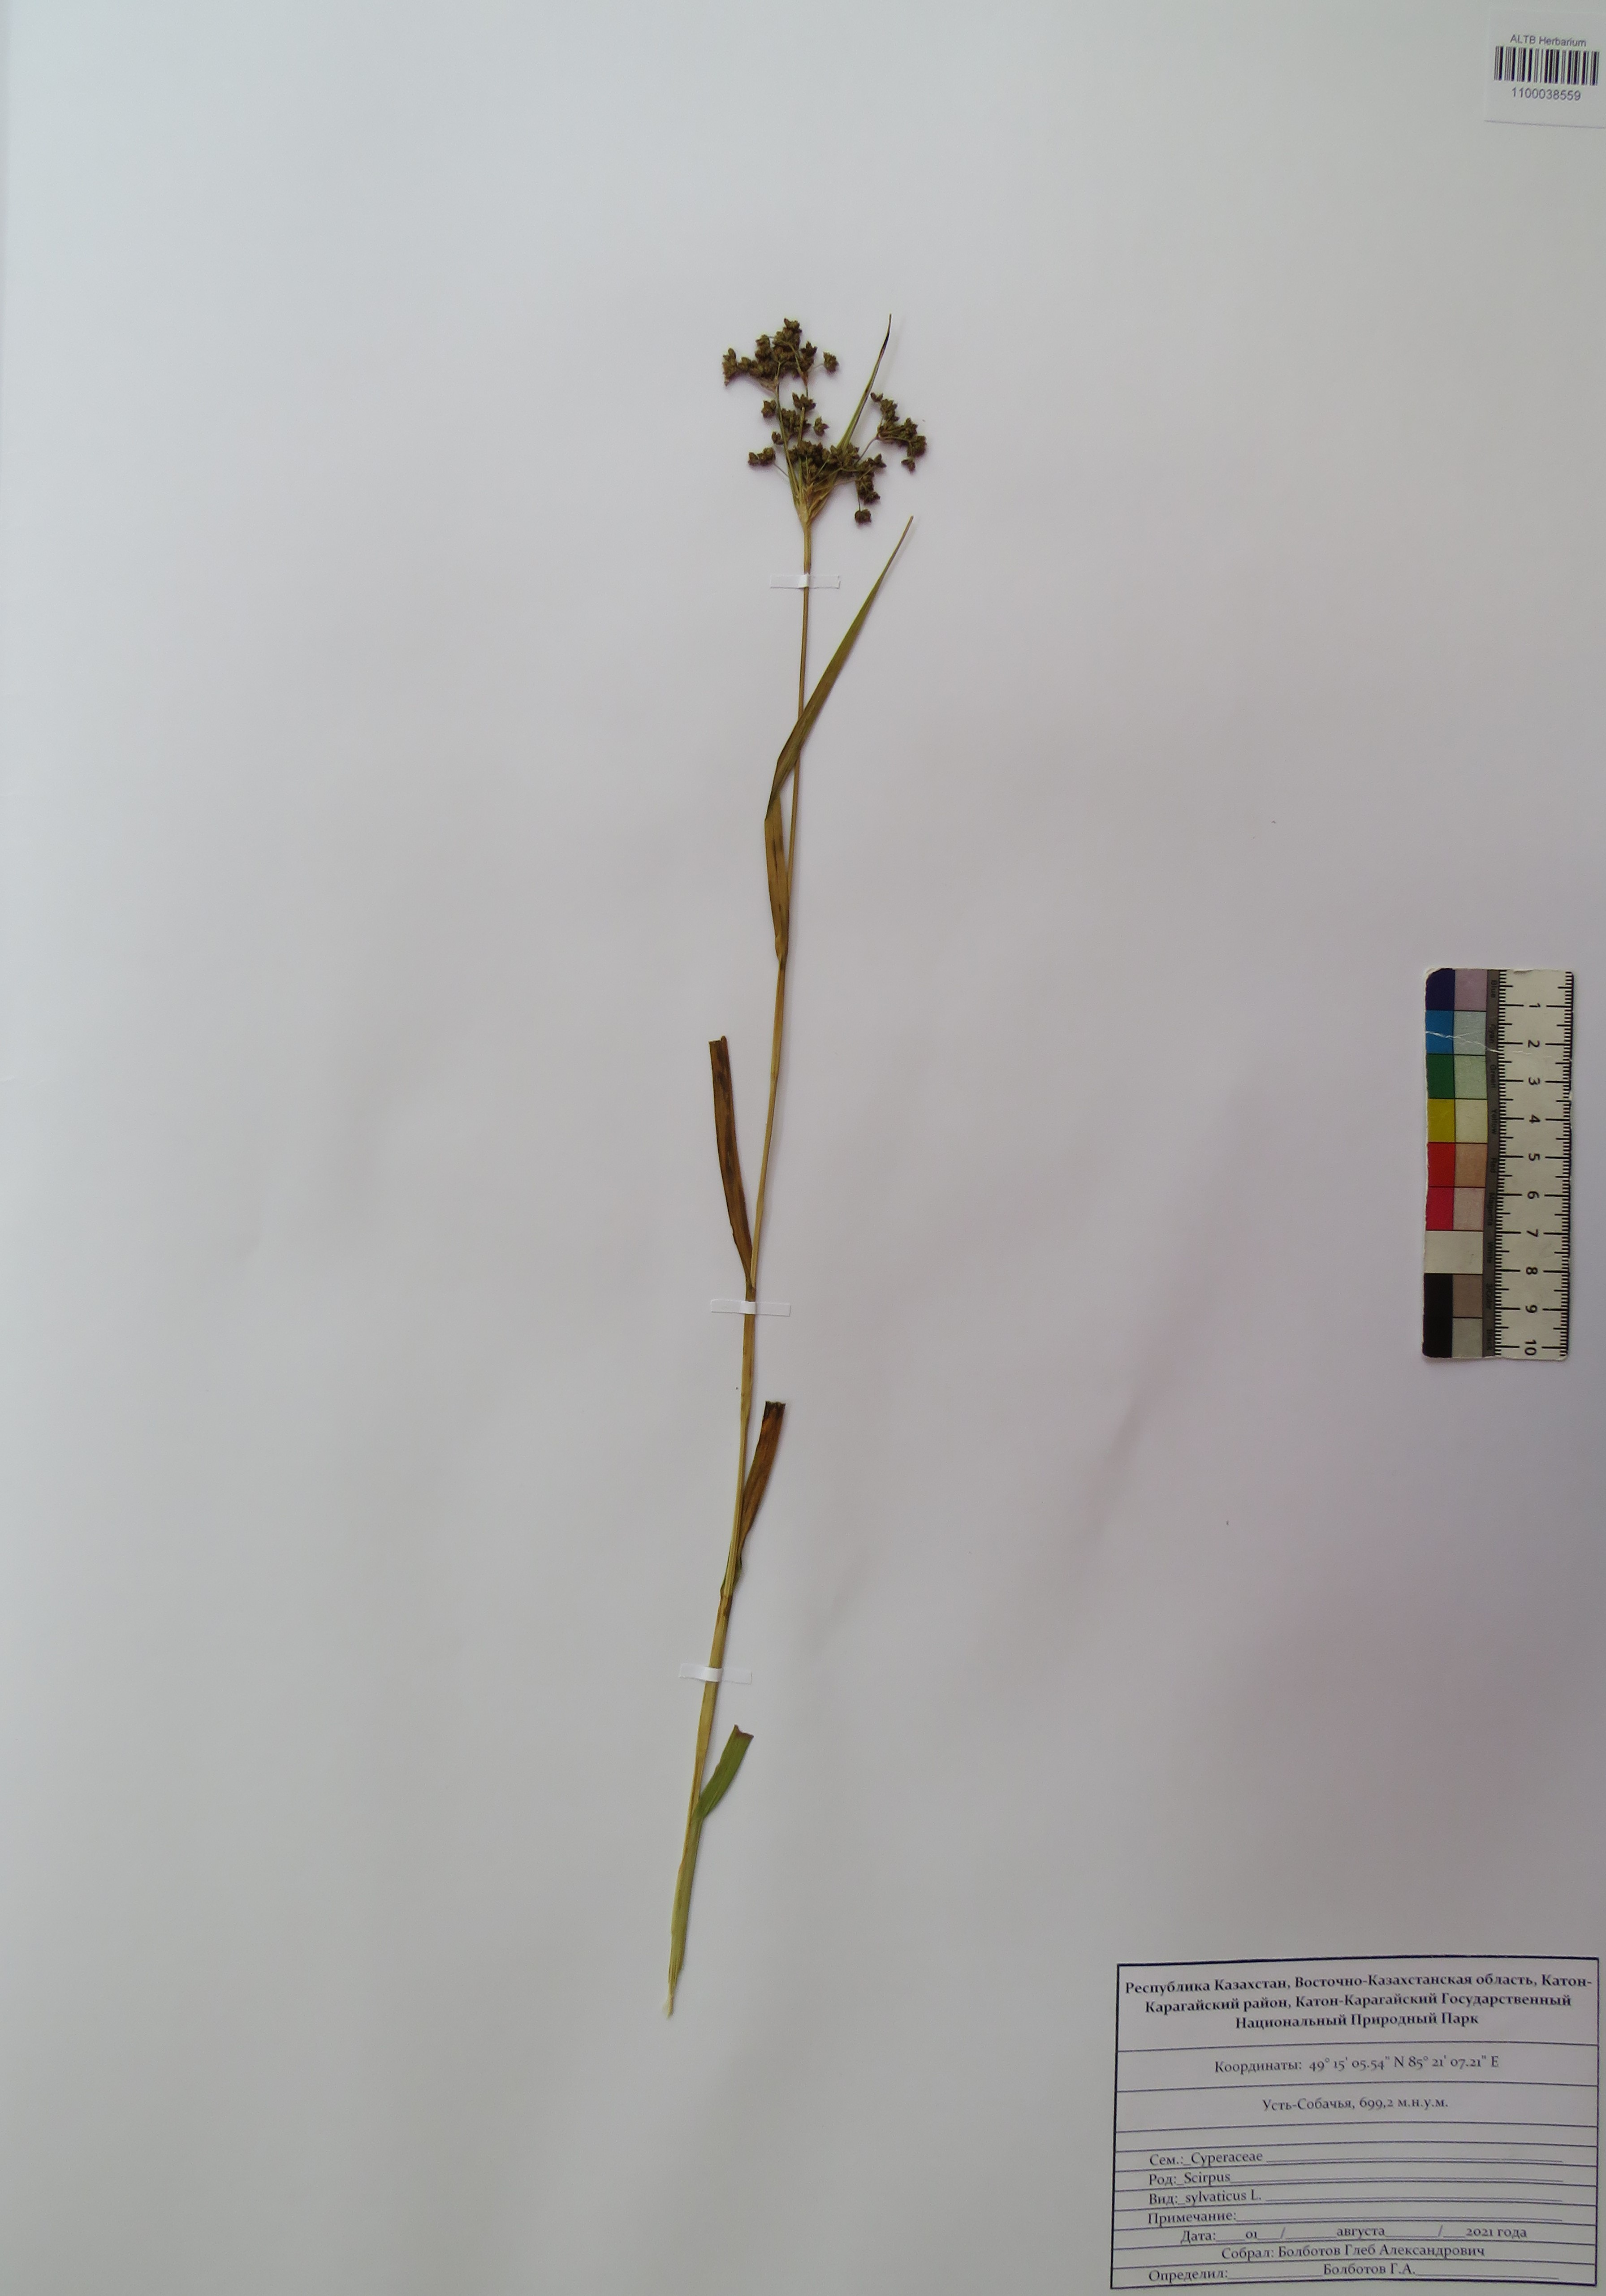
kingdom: Plantae
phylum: Tracheophyta
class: Liliopsida
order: Poales
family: Cyperaceae
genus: Scirpus
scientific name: Scirpus sylvaticus
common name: Wood club-rush
